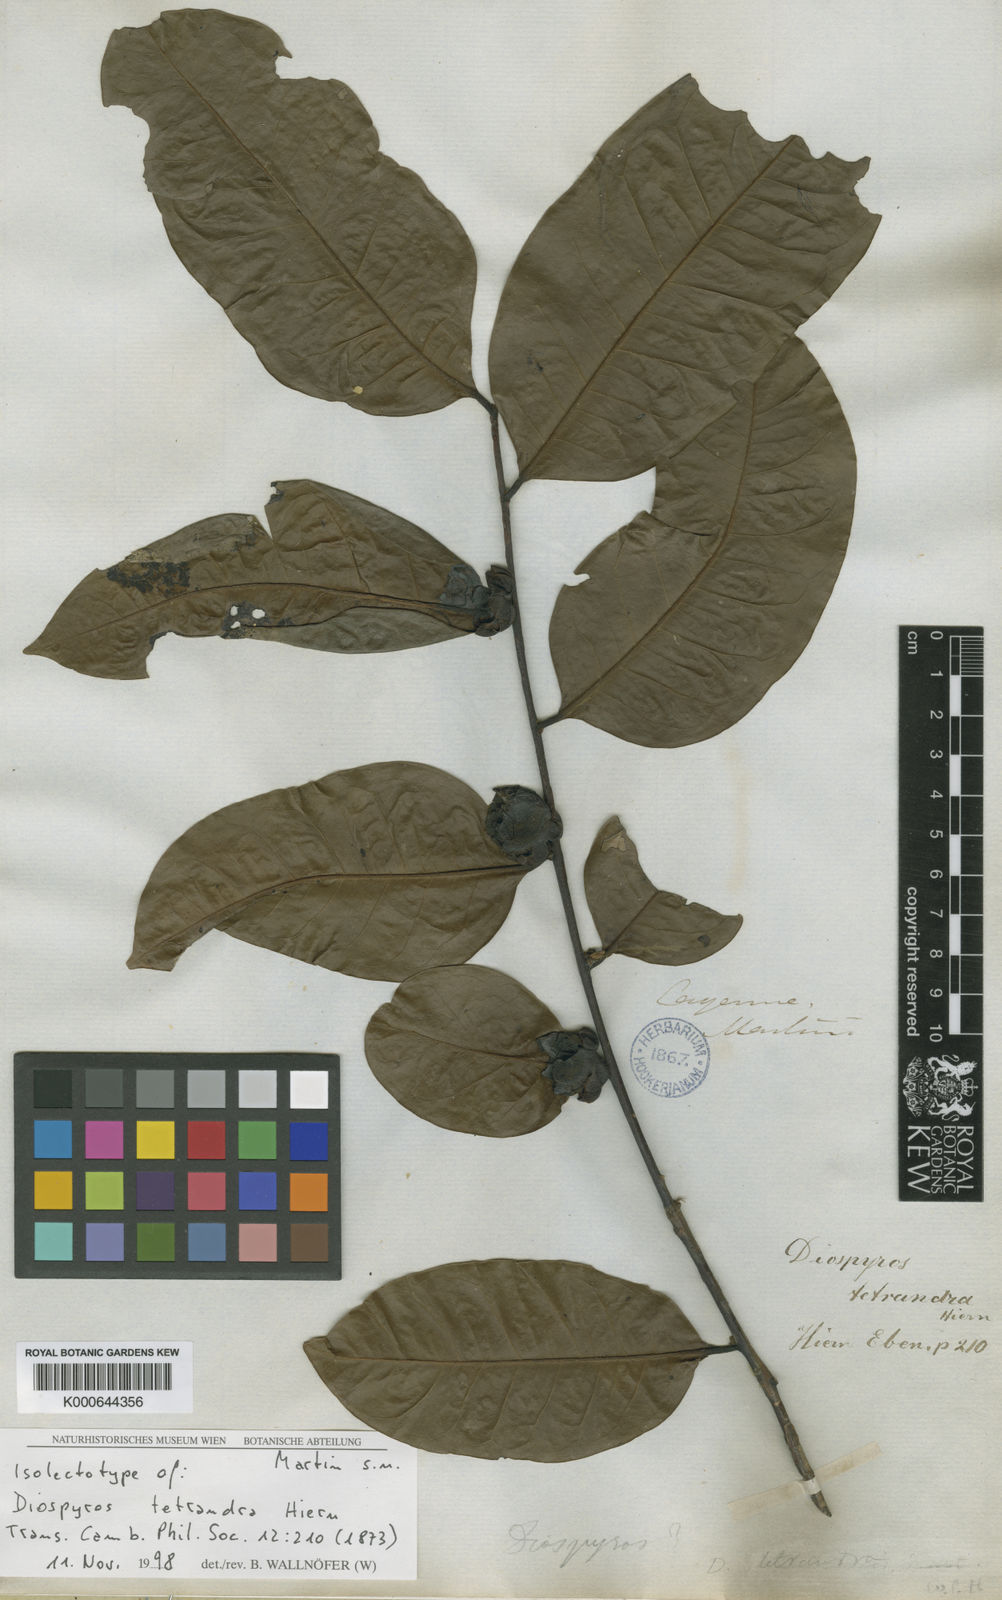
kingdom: Plantae
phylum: Tracheophyta
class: Magnoliopsida
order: Ericales
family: Ebenaceae
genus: Diospyros
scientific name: Diospyros tetrandra
